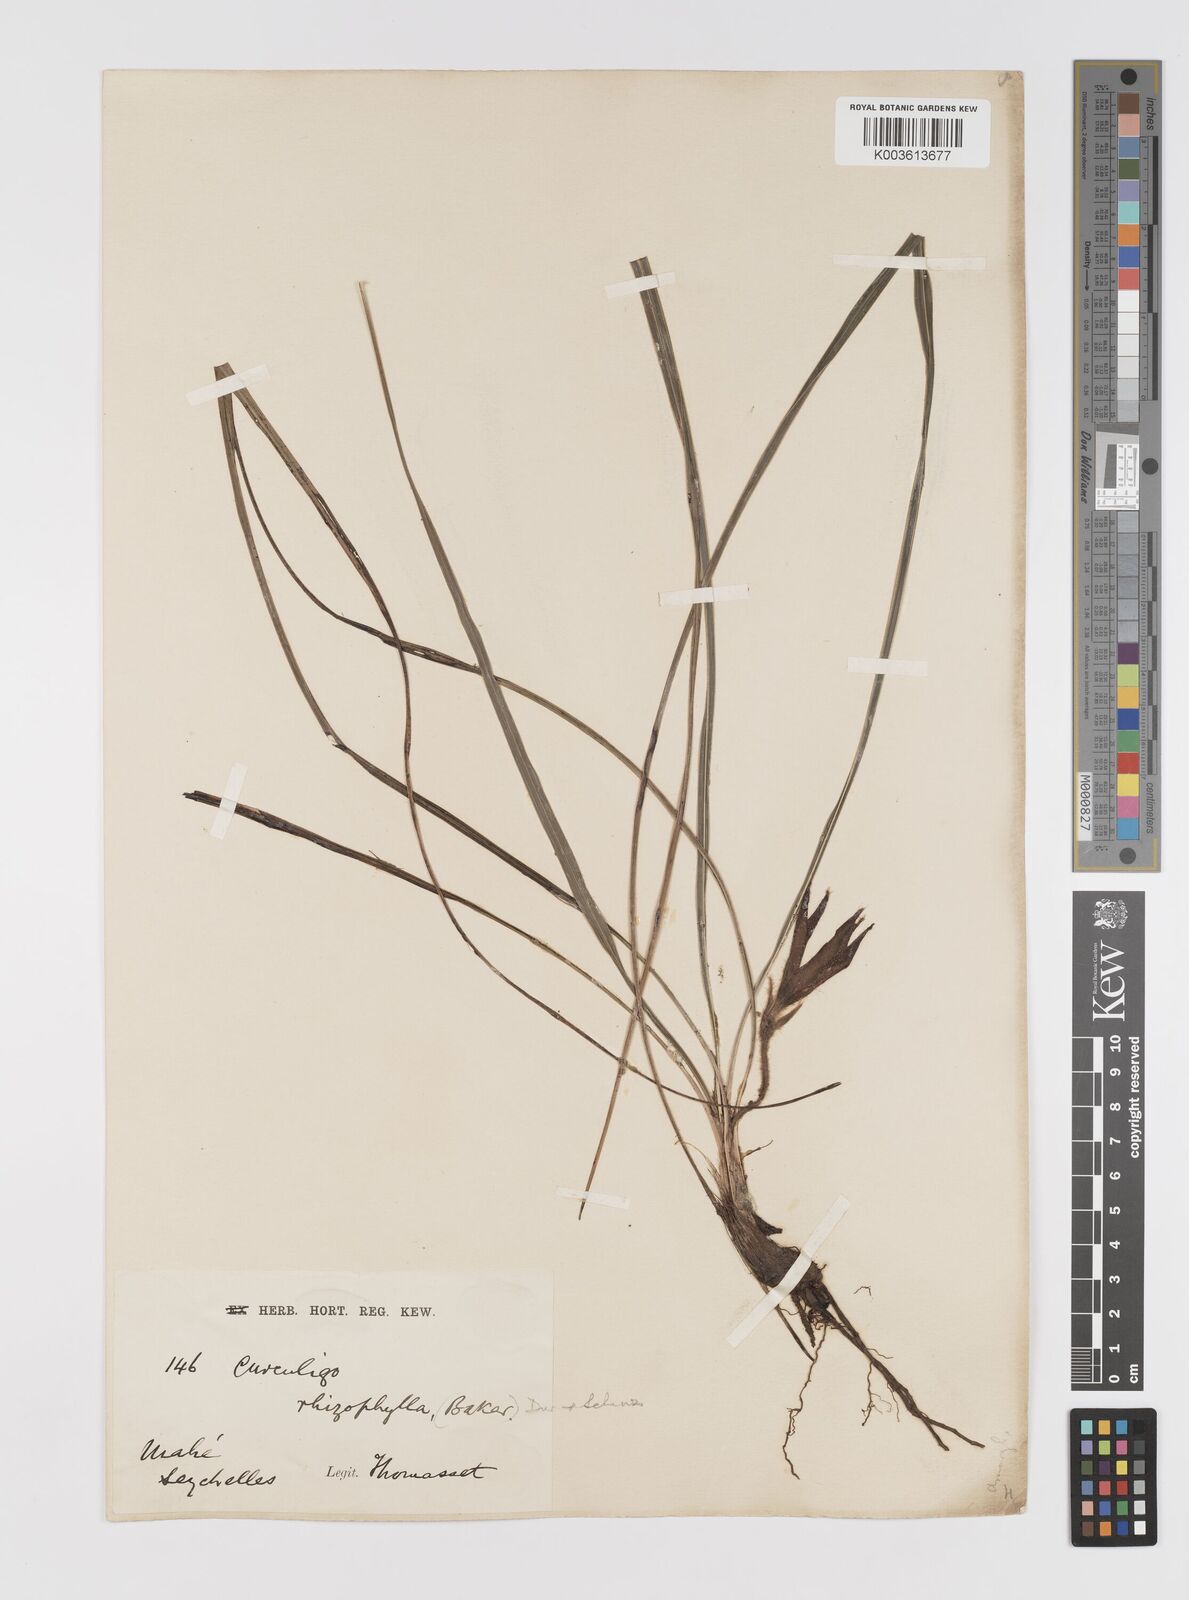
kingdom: Plantae
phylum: Tracheophyta
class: Liliopsida
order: Asparagales
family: Hypoxidaceae
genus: Curculigo
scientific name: Curculigo rhizophylla
